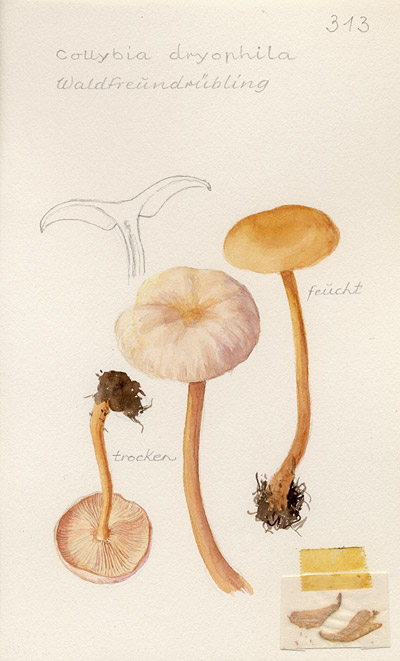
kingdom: Fungi
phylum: Basidiomycota
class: Agaricomycetes
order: Agaricales
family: Omphalotaceae
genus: Gymnopus
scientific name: Gymnopus dryophilus
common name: Penny top
